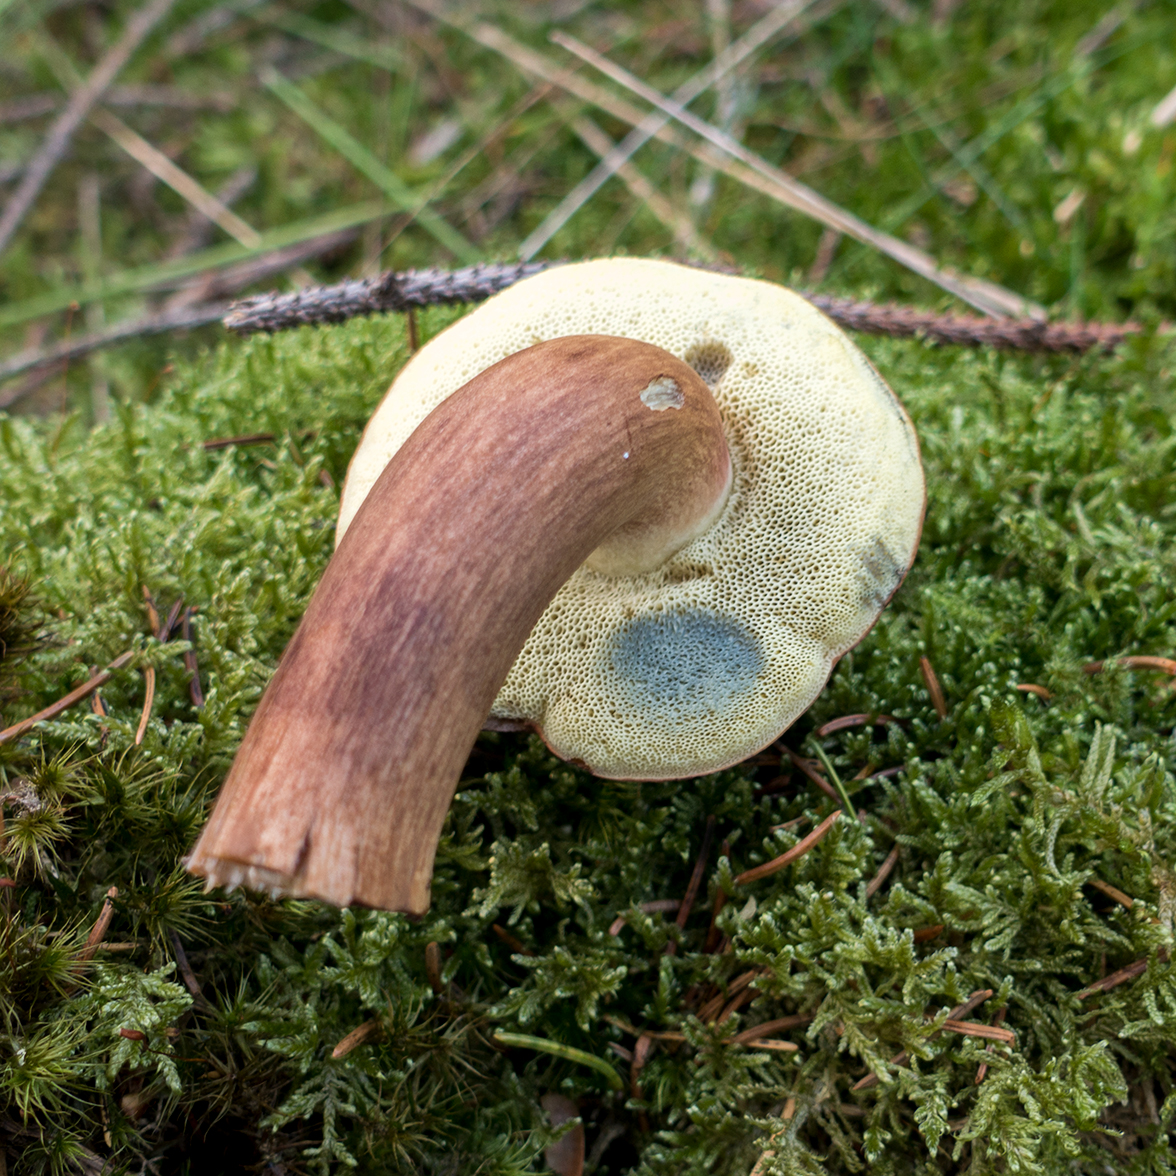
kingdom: Fungi
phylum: Basidiomycota
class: Agaricomycetes
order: Boletales
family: Boletaceae
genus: Imleria
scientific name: Imleria badia
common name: brunstokket rørhat
